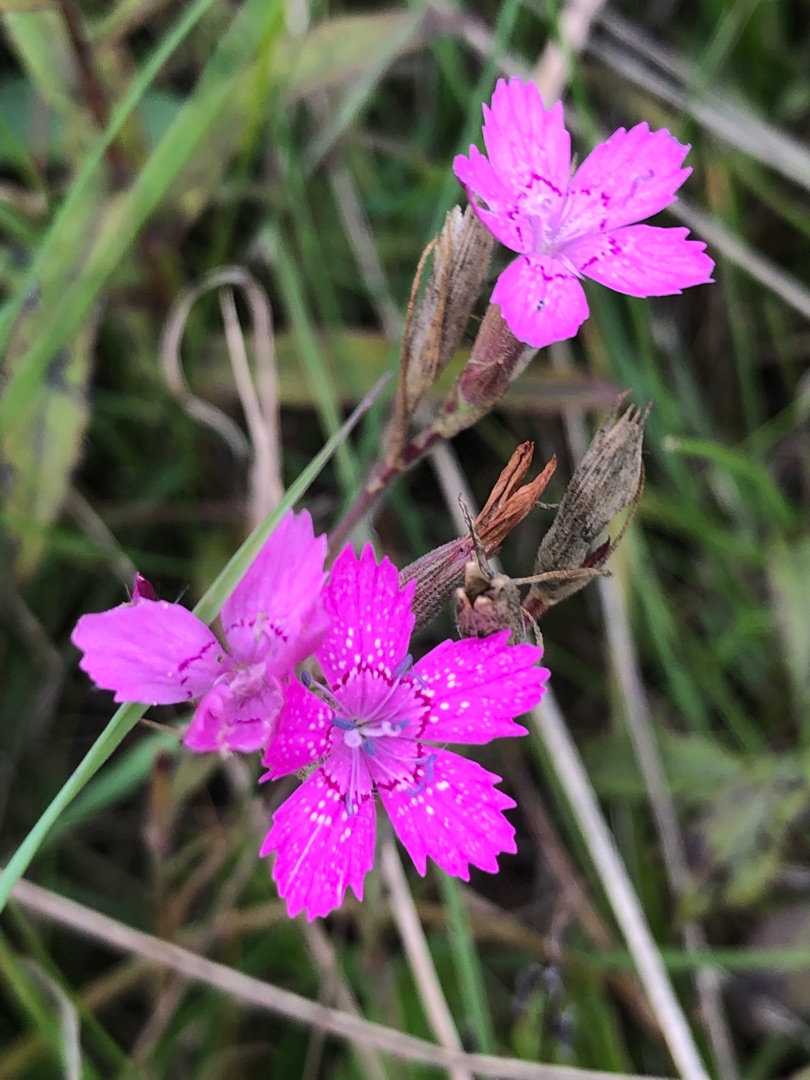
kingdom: Plantae
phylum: Tracheophyta
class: Magnoliopsida
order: Caryophyllales
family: Caryophyllaceae
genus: Dianthus
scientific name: Dianthus armeria
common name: Kost-nellike
